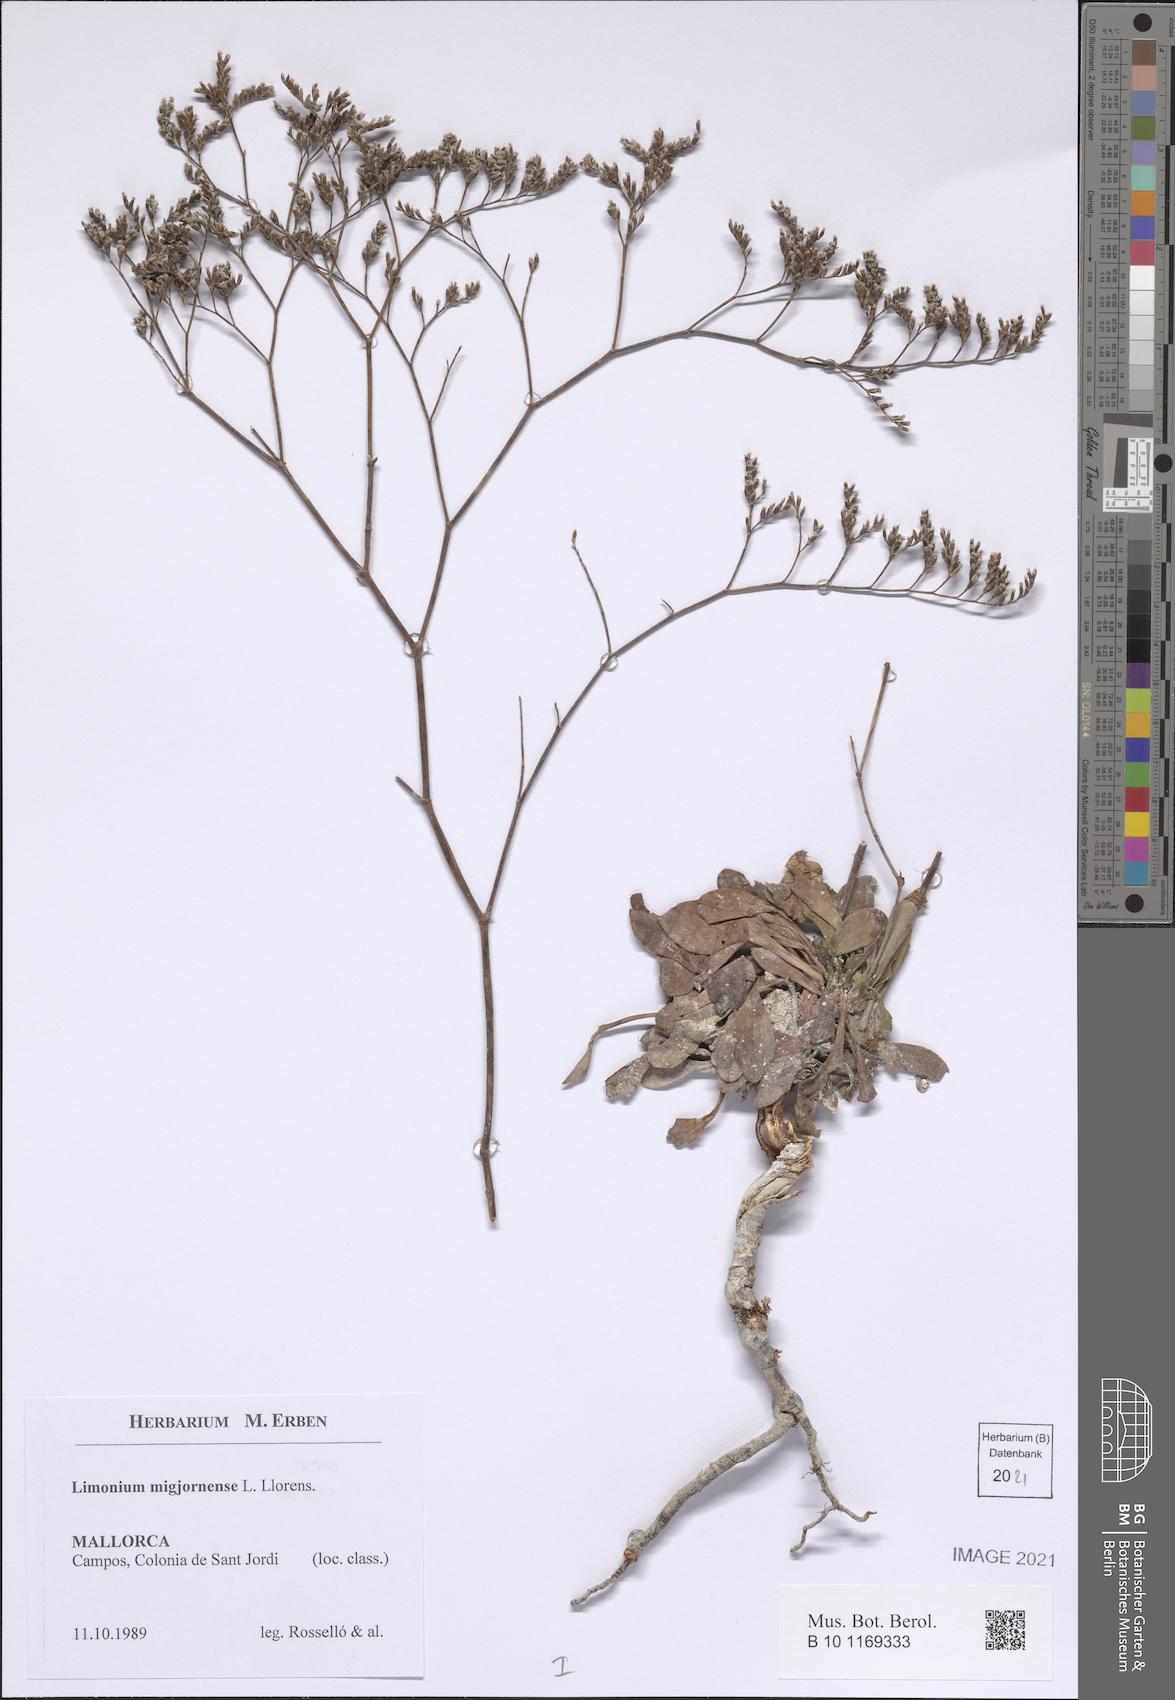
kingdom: Plantae
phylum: Tracheophyta
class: Magnoliopsida
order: Caryophyllales
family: Plumbaginaceae
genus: Limonium
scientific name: Limonium migjornense
